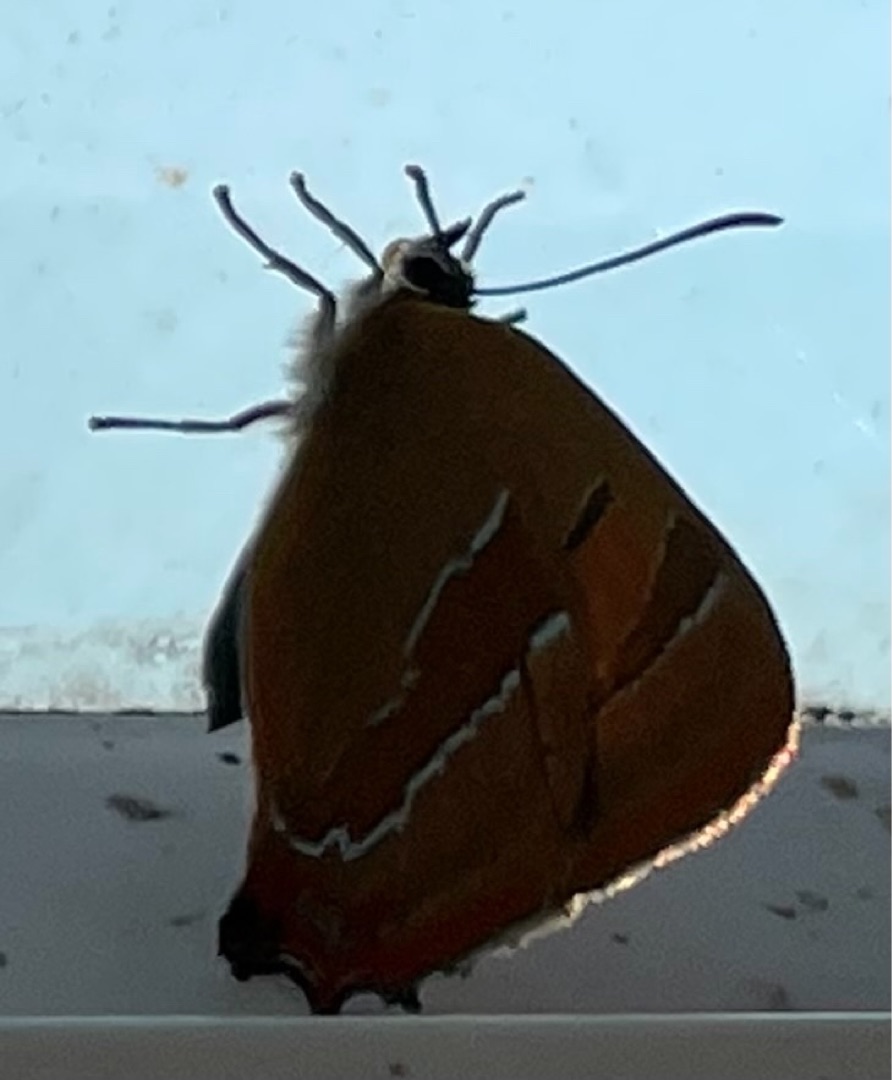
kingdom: Animalia
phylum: Arthropoda
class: Insecta
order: Lepidoptera
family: Lycaenidae
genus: Thecla
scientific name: Thecla betulae
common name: Guldhale
